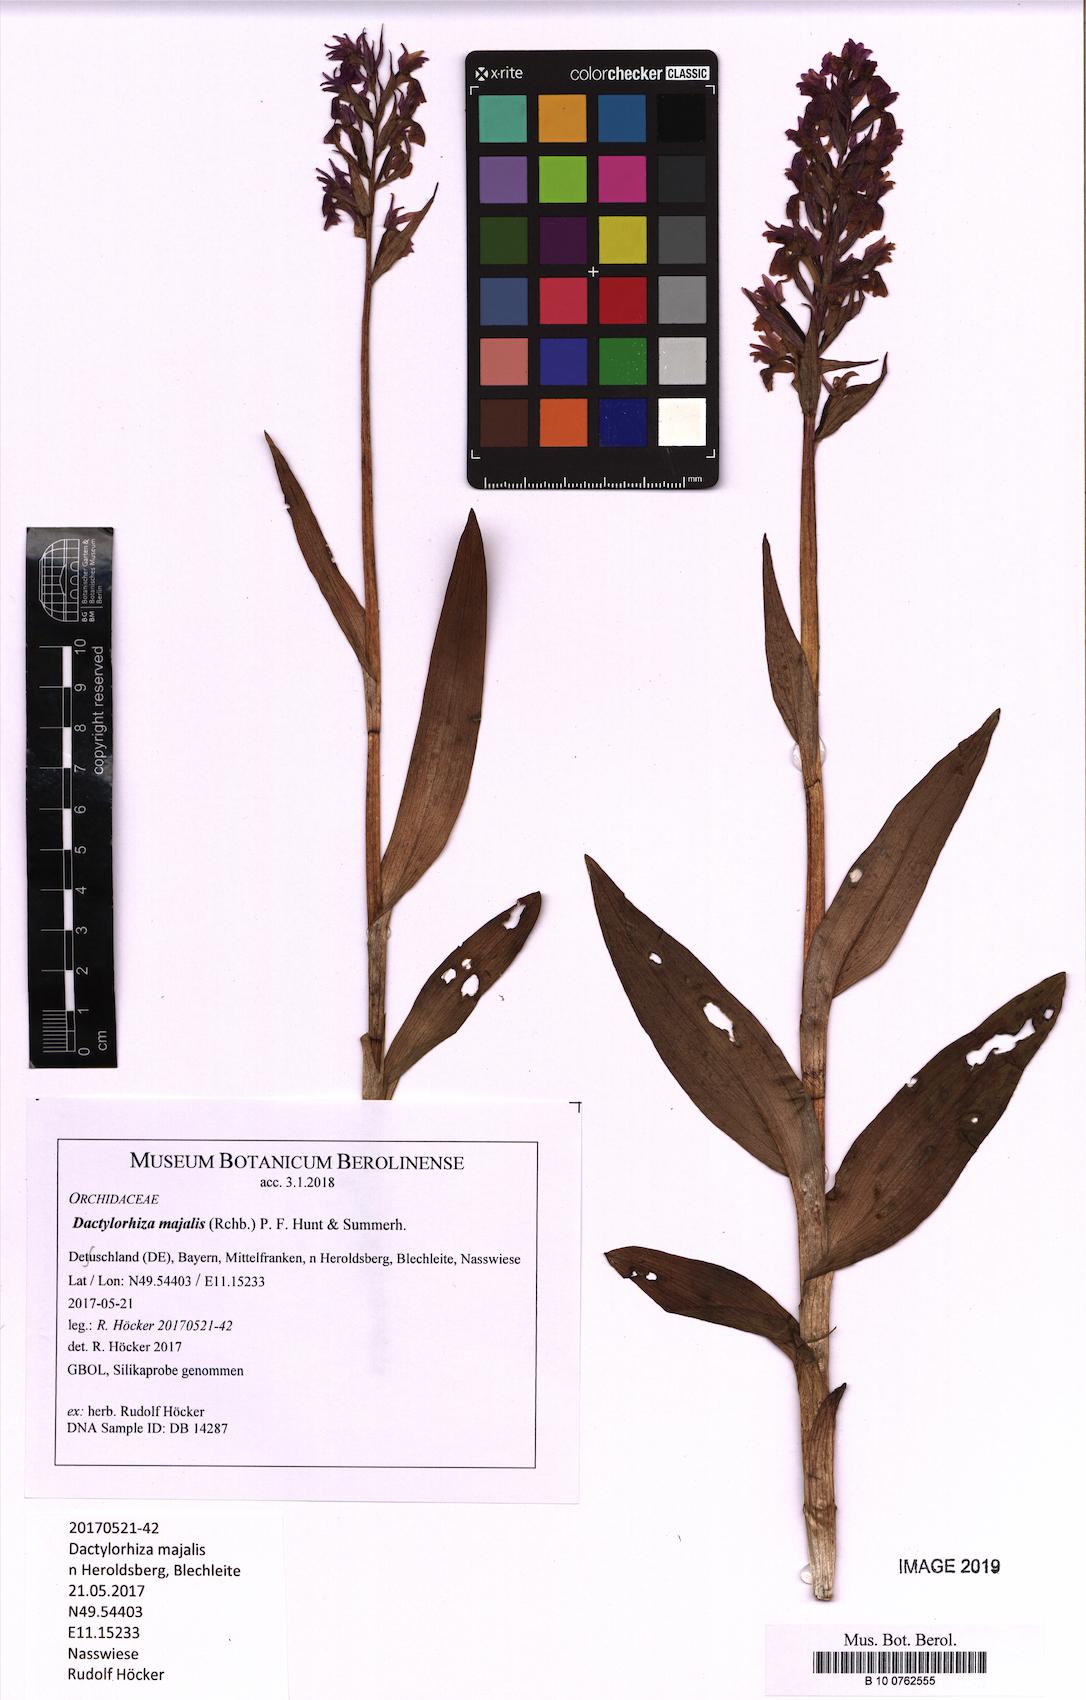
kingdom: Plantae
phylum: Tracheophyta
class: Liliopsida
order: Asparagales
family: Orchidaceae
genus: Dactylorhiza
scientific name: Dactylorhiza majalis
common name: Marsh orchid
